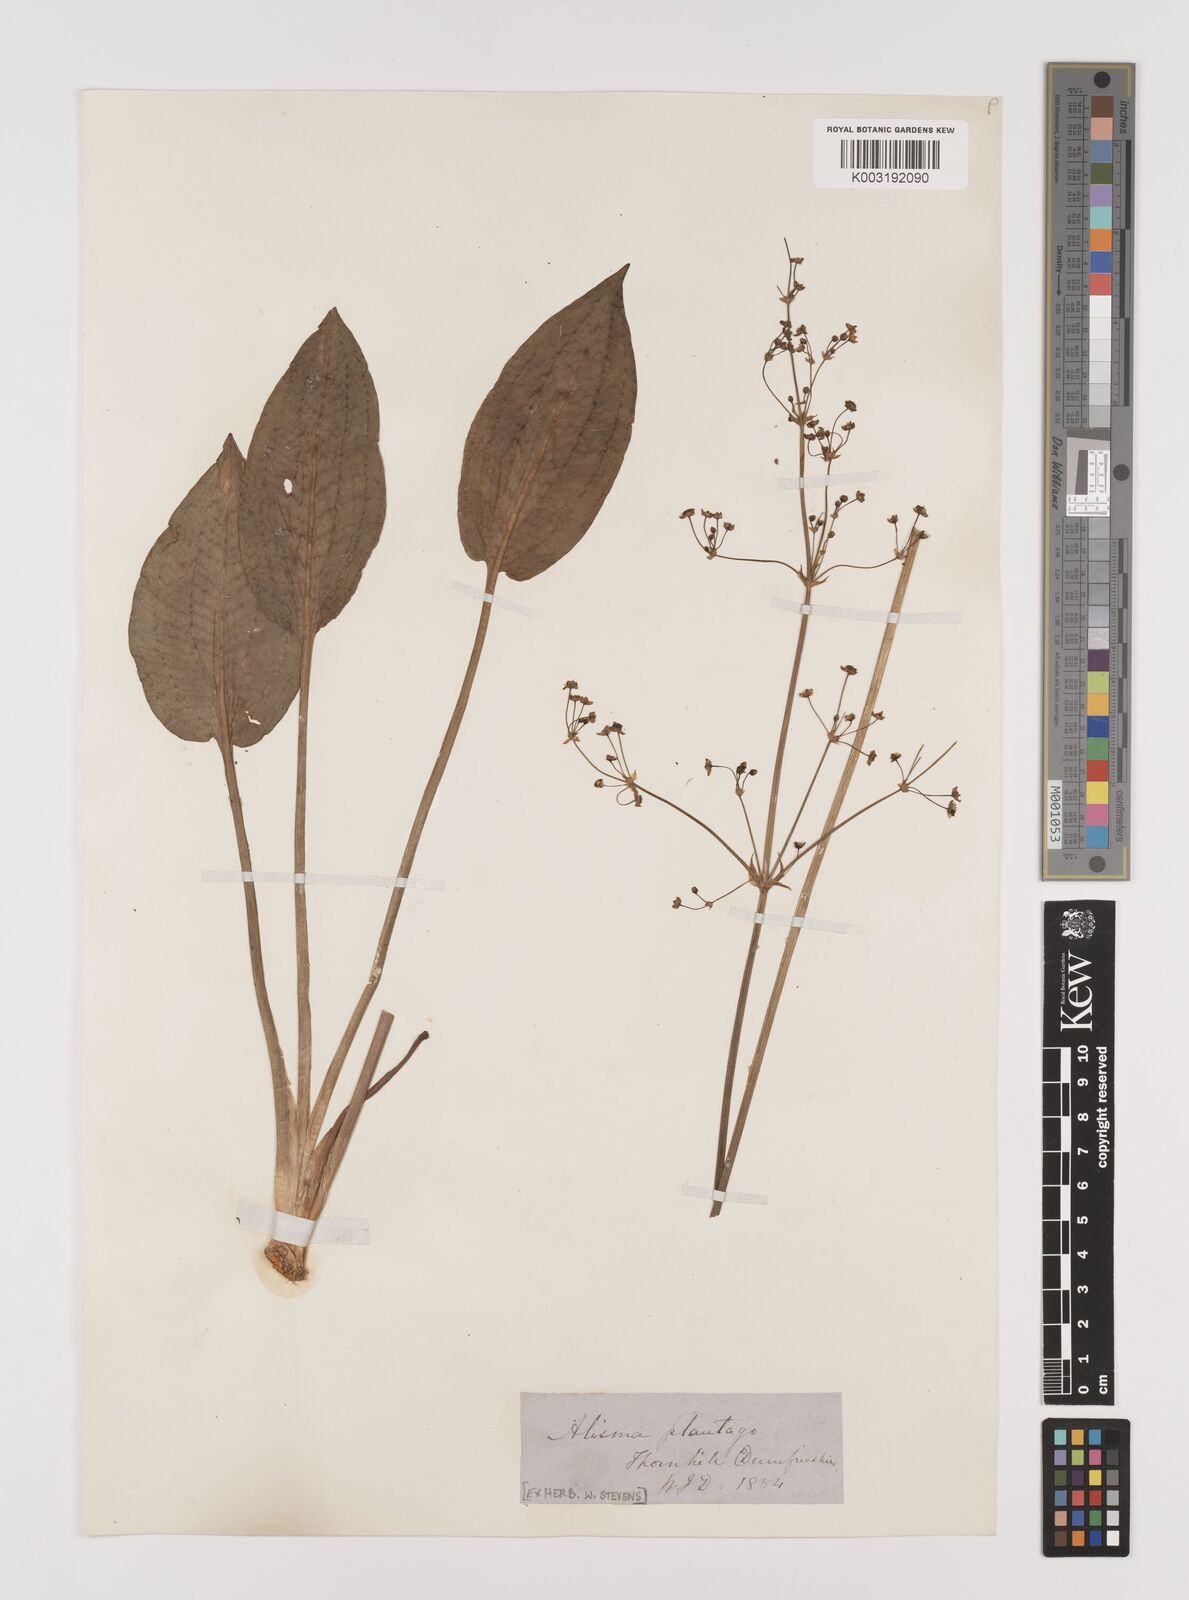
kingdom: Plantae
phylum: Tracheophyta
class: Liliopsida
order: Alismatales
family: Alismataceae
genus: Alisma
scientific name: Alisma plantago-aquatica
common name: Water-plantain
